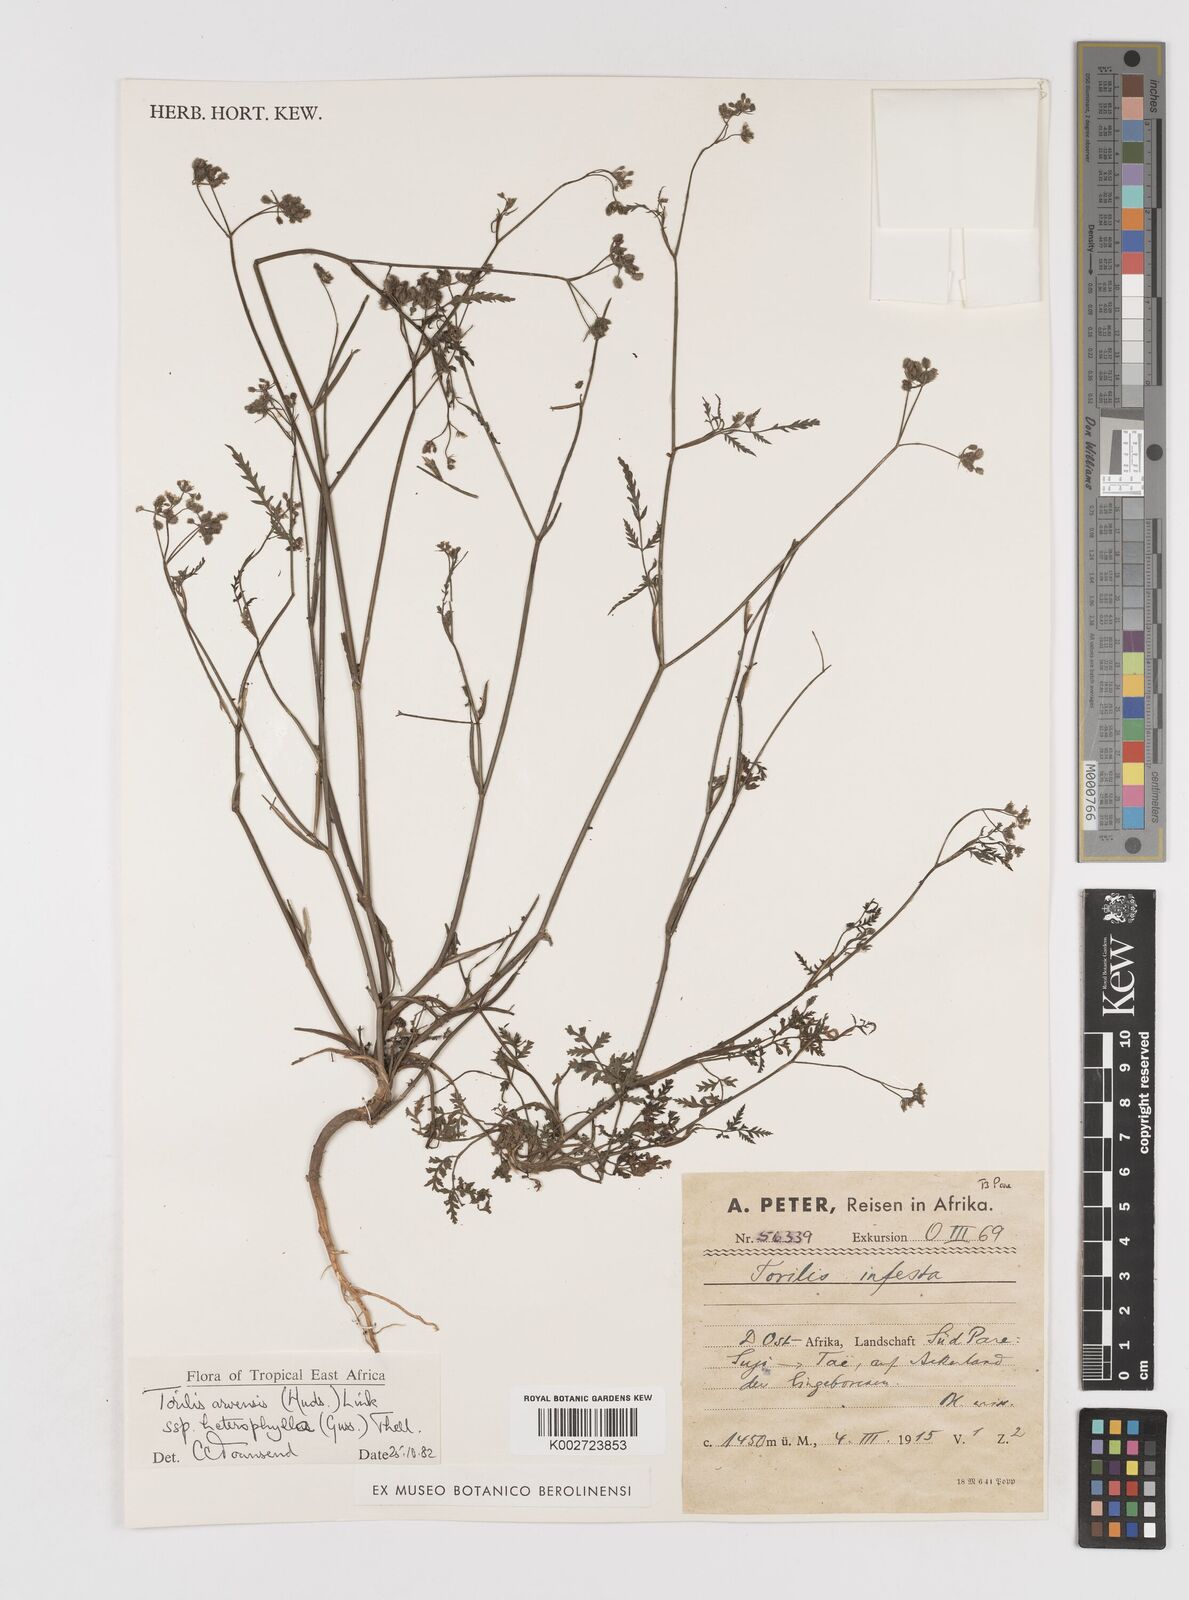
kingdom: Plantae
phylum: Tracheophyta
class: Magnoliopsida
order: Apiales
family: Apiaceae
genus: Torilis
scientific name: Torilis arvensis
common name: Spreading hedge-parsley
